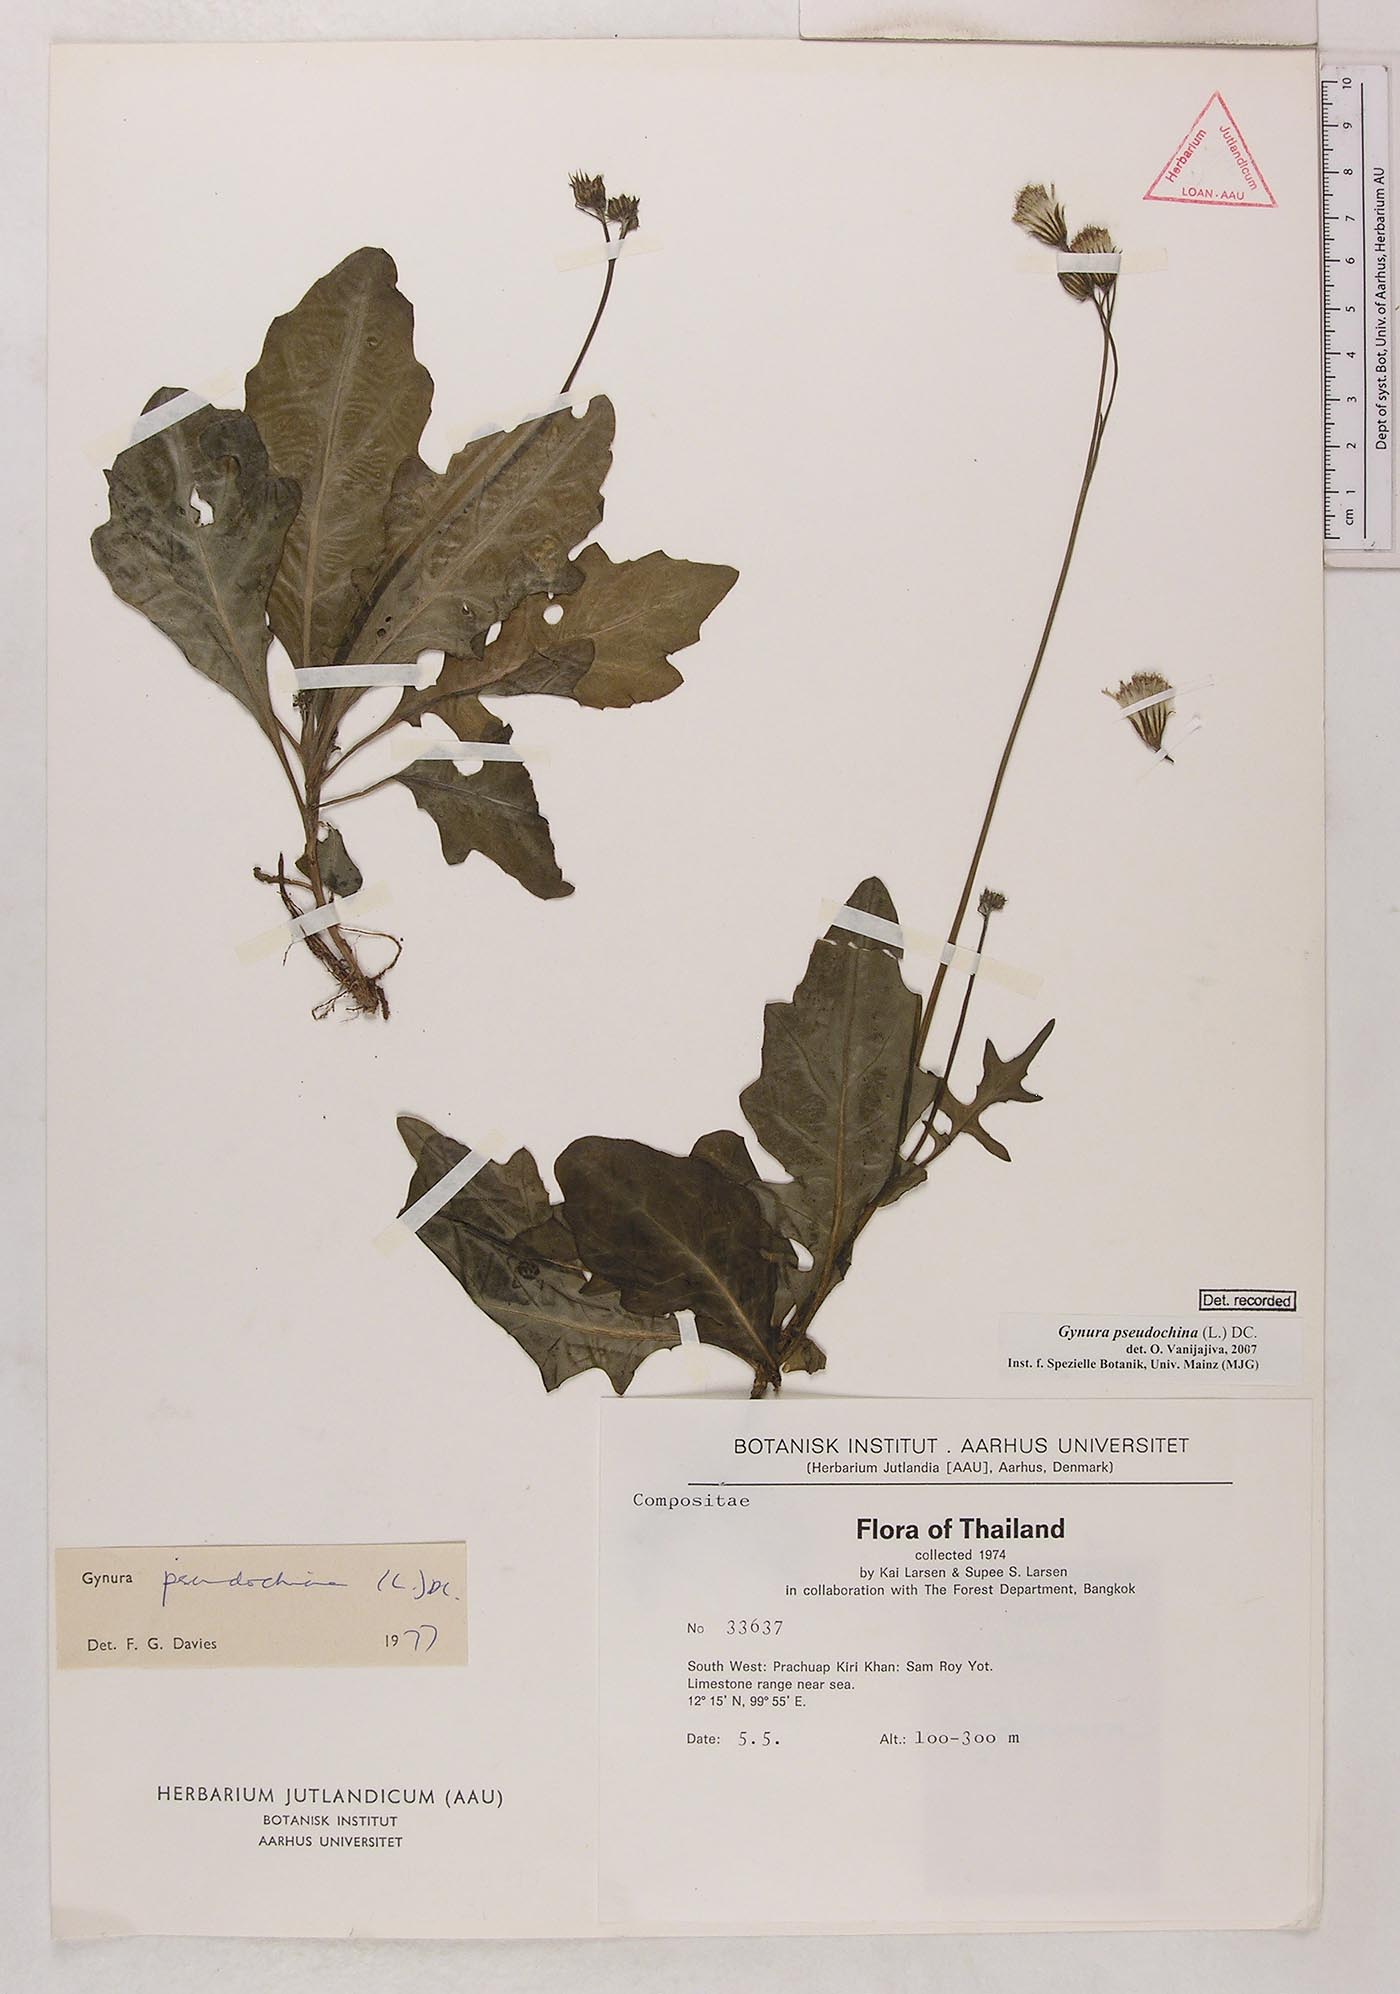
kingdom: Plantae
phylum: Tracheophyta
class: Magnoliopsida
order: Asterales
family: Asteraceae
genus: Gynura
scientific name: Gynura pseudochina
